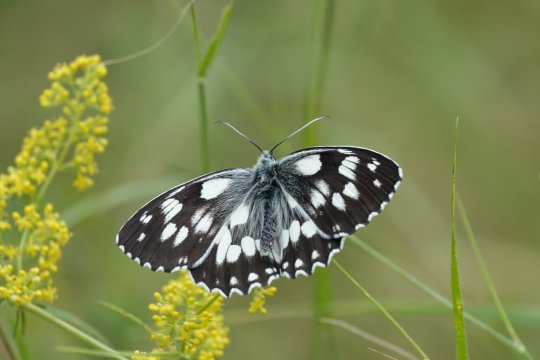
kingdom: Animalia
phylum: Arthropoda
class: Insecta
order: Lepidoptera
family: Nymphalidae
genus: Melanargia
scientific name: Melanargia galathea
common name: Marbled White
